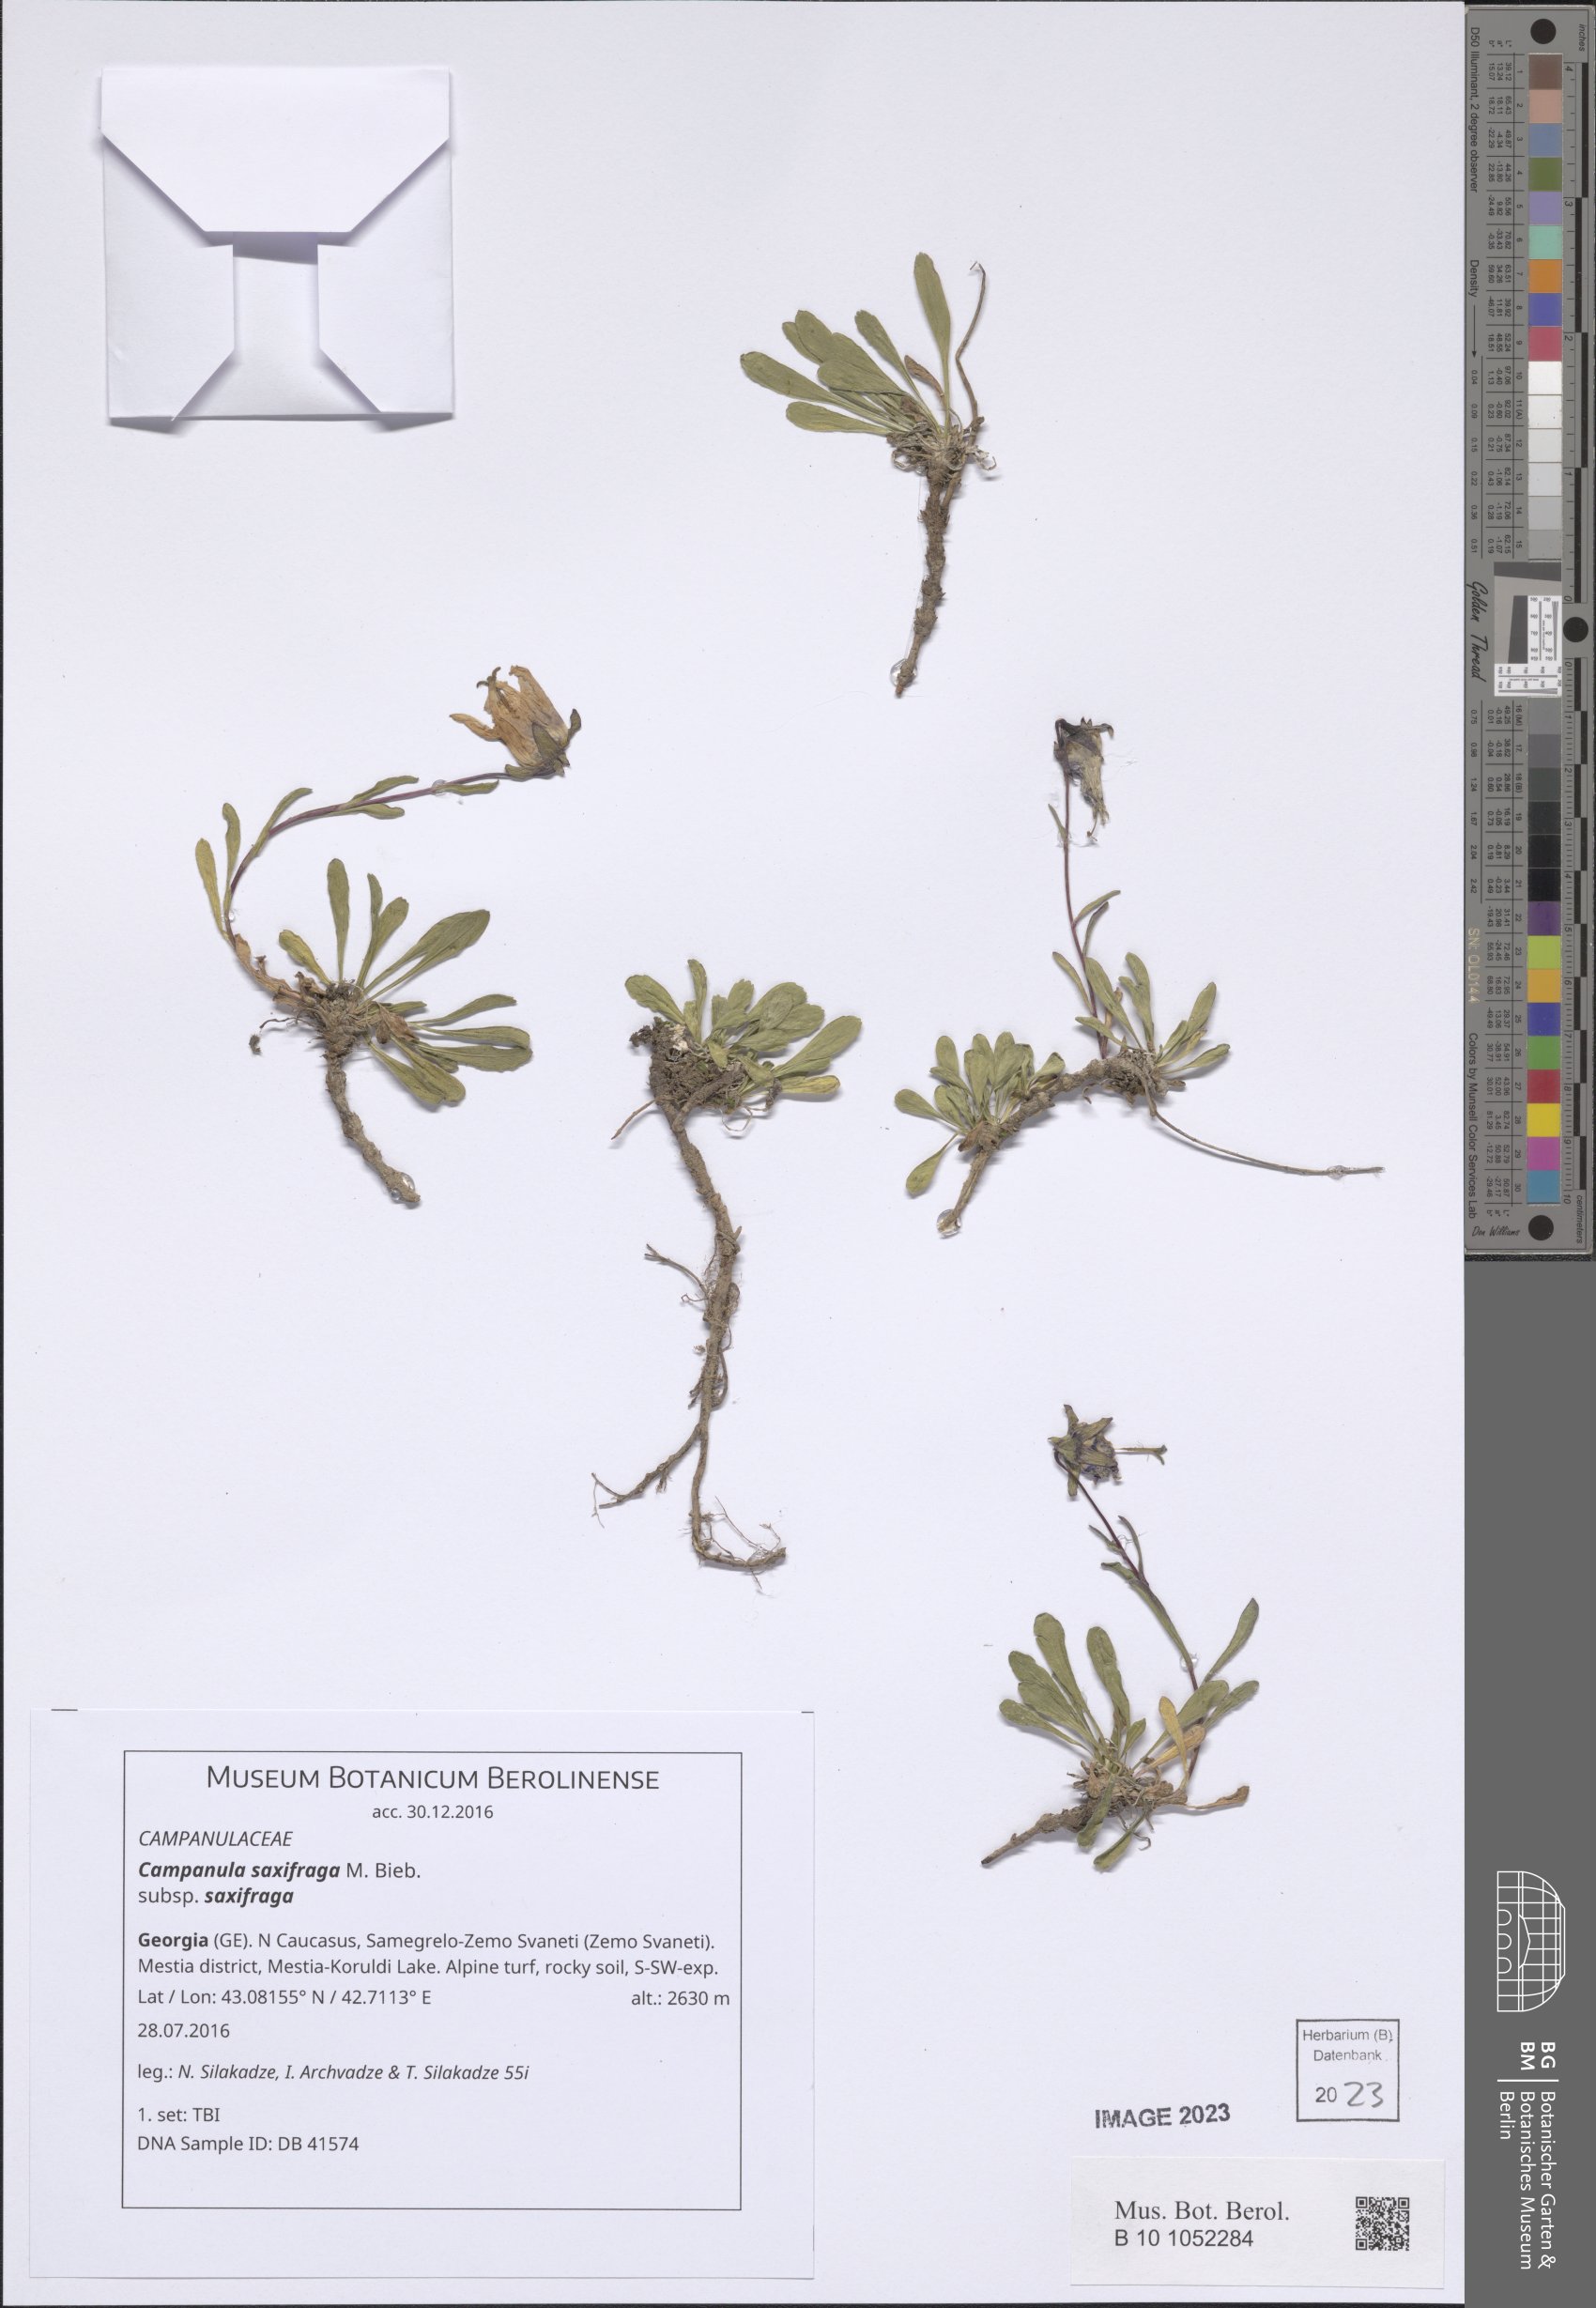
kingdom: Plantae
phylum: Tracheophyta
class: Magnoliopsida
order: Asterales
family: Campanulaceae
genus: Campanula
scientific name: Campanula saxifraga
